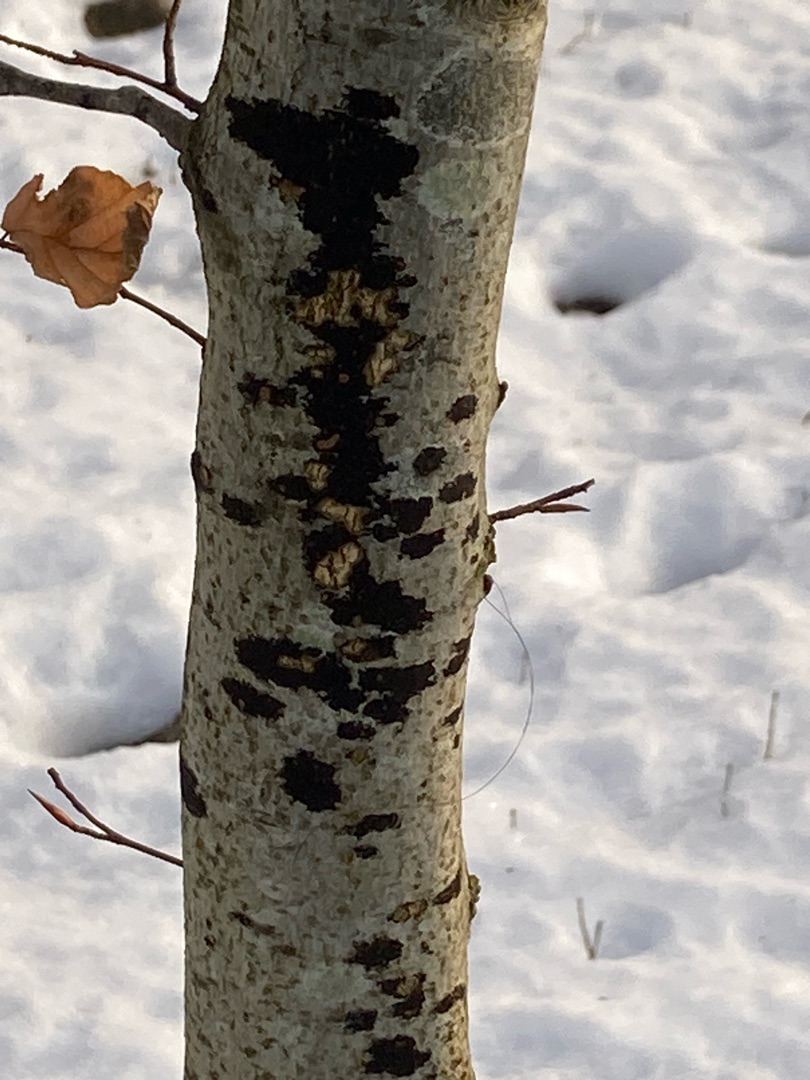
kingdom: Fungi
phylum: Ascomycota
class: Leotiomycetes
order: Rhytismatales
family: Ascodichaenaceae
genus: Ascodichaena
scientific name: Ascodichaena rugosa
